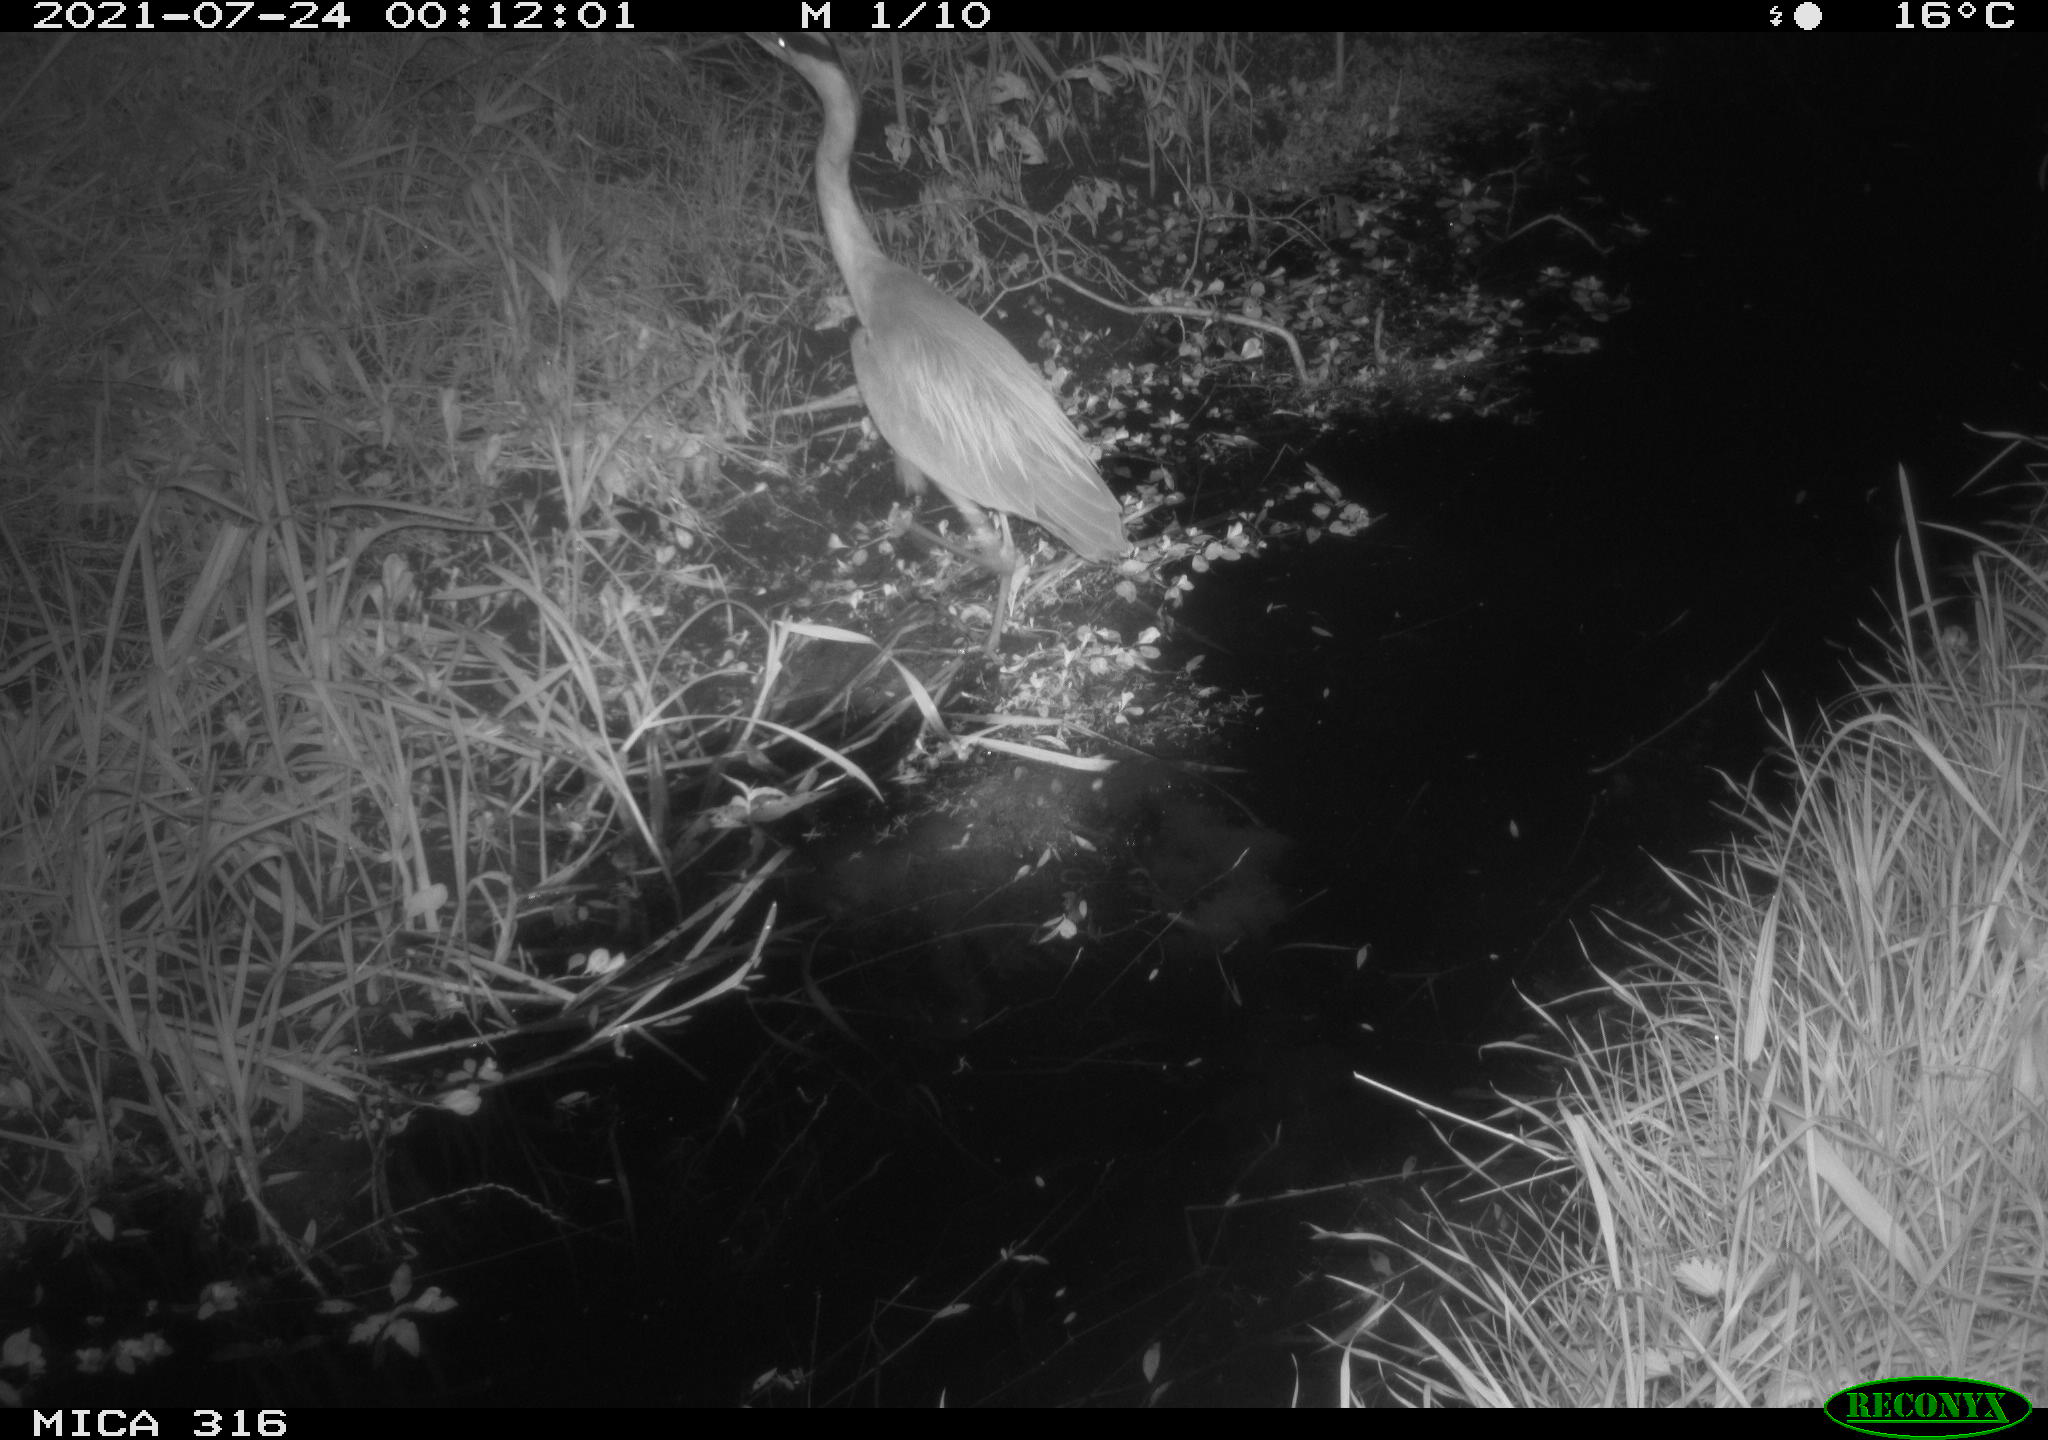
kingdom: Animalia
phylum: Chordata
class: Aves
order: Pelecaniformes
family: Ardeidae
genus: Ardea
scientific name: Ardea
